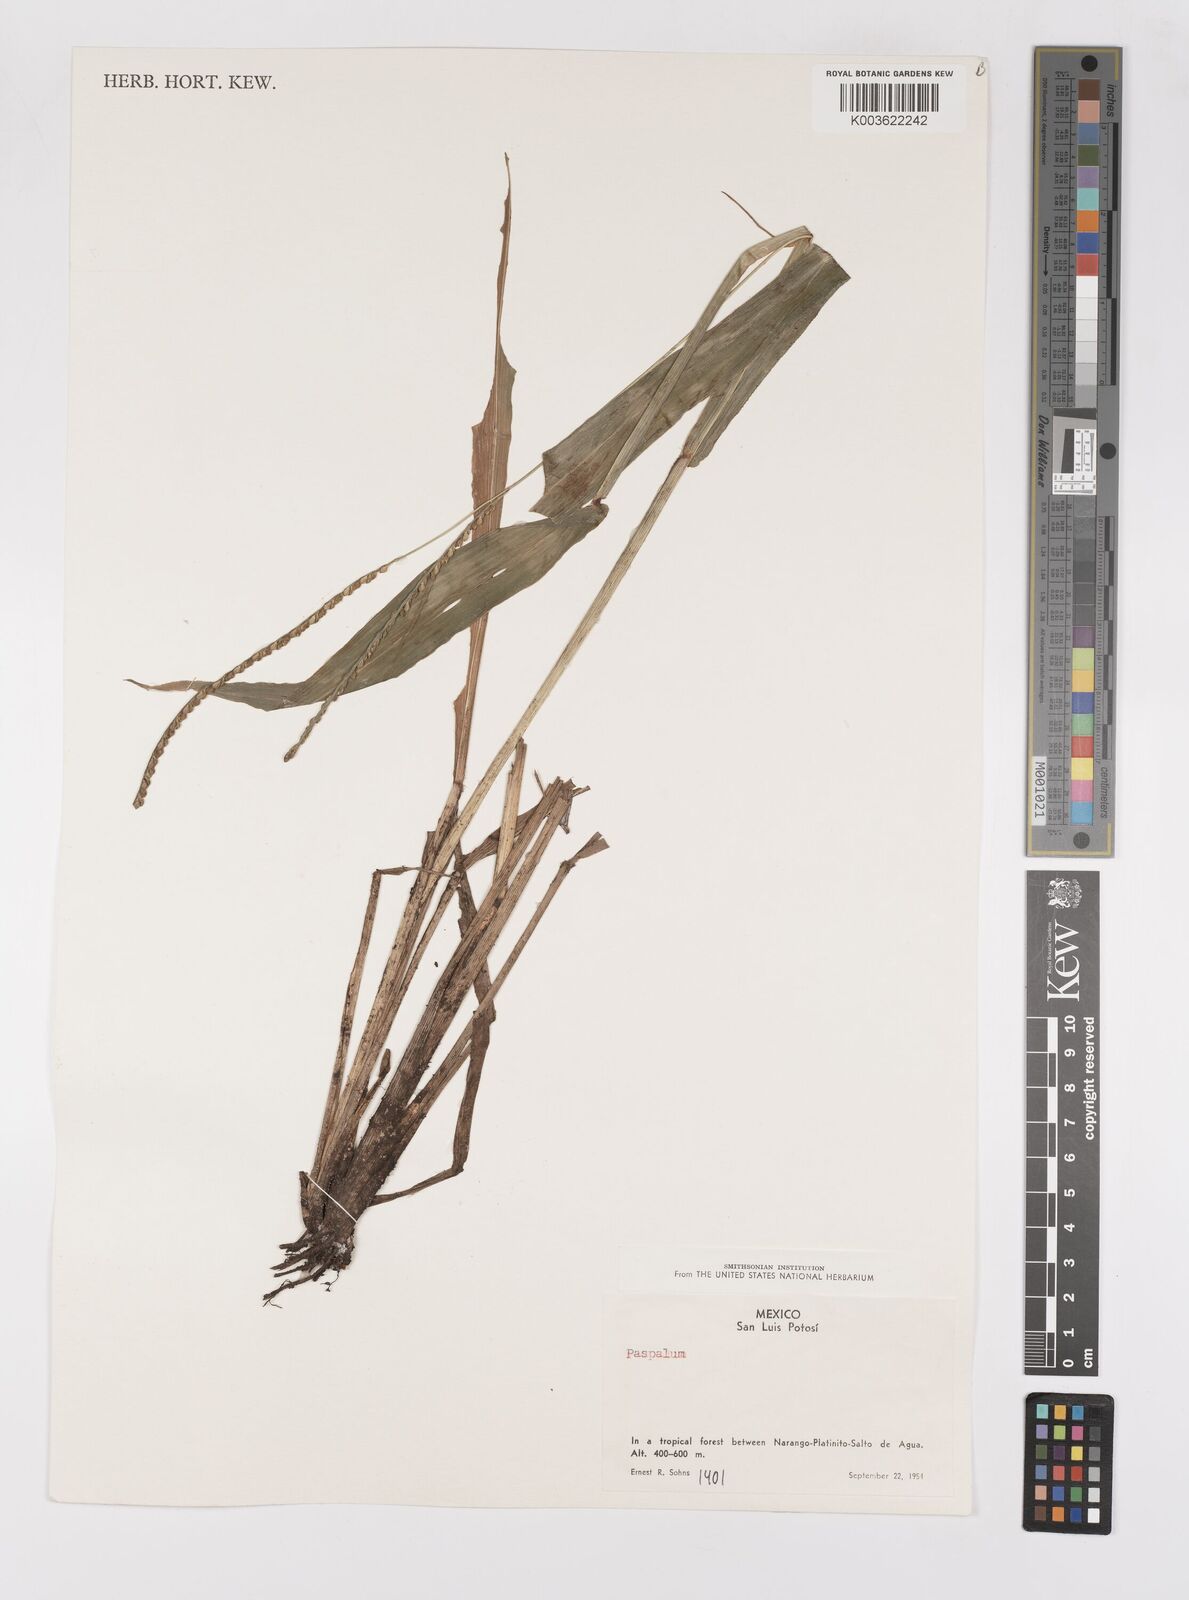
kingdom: Plantae
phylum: Tracheophyta
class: Liliopsida
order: Poales
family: Poaceae
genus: Paspalum
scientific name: Paspalum
